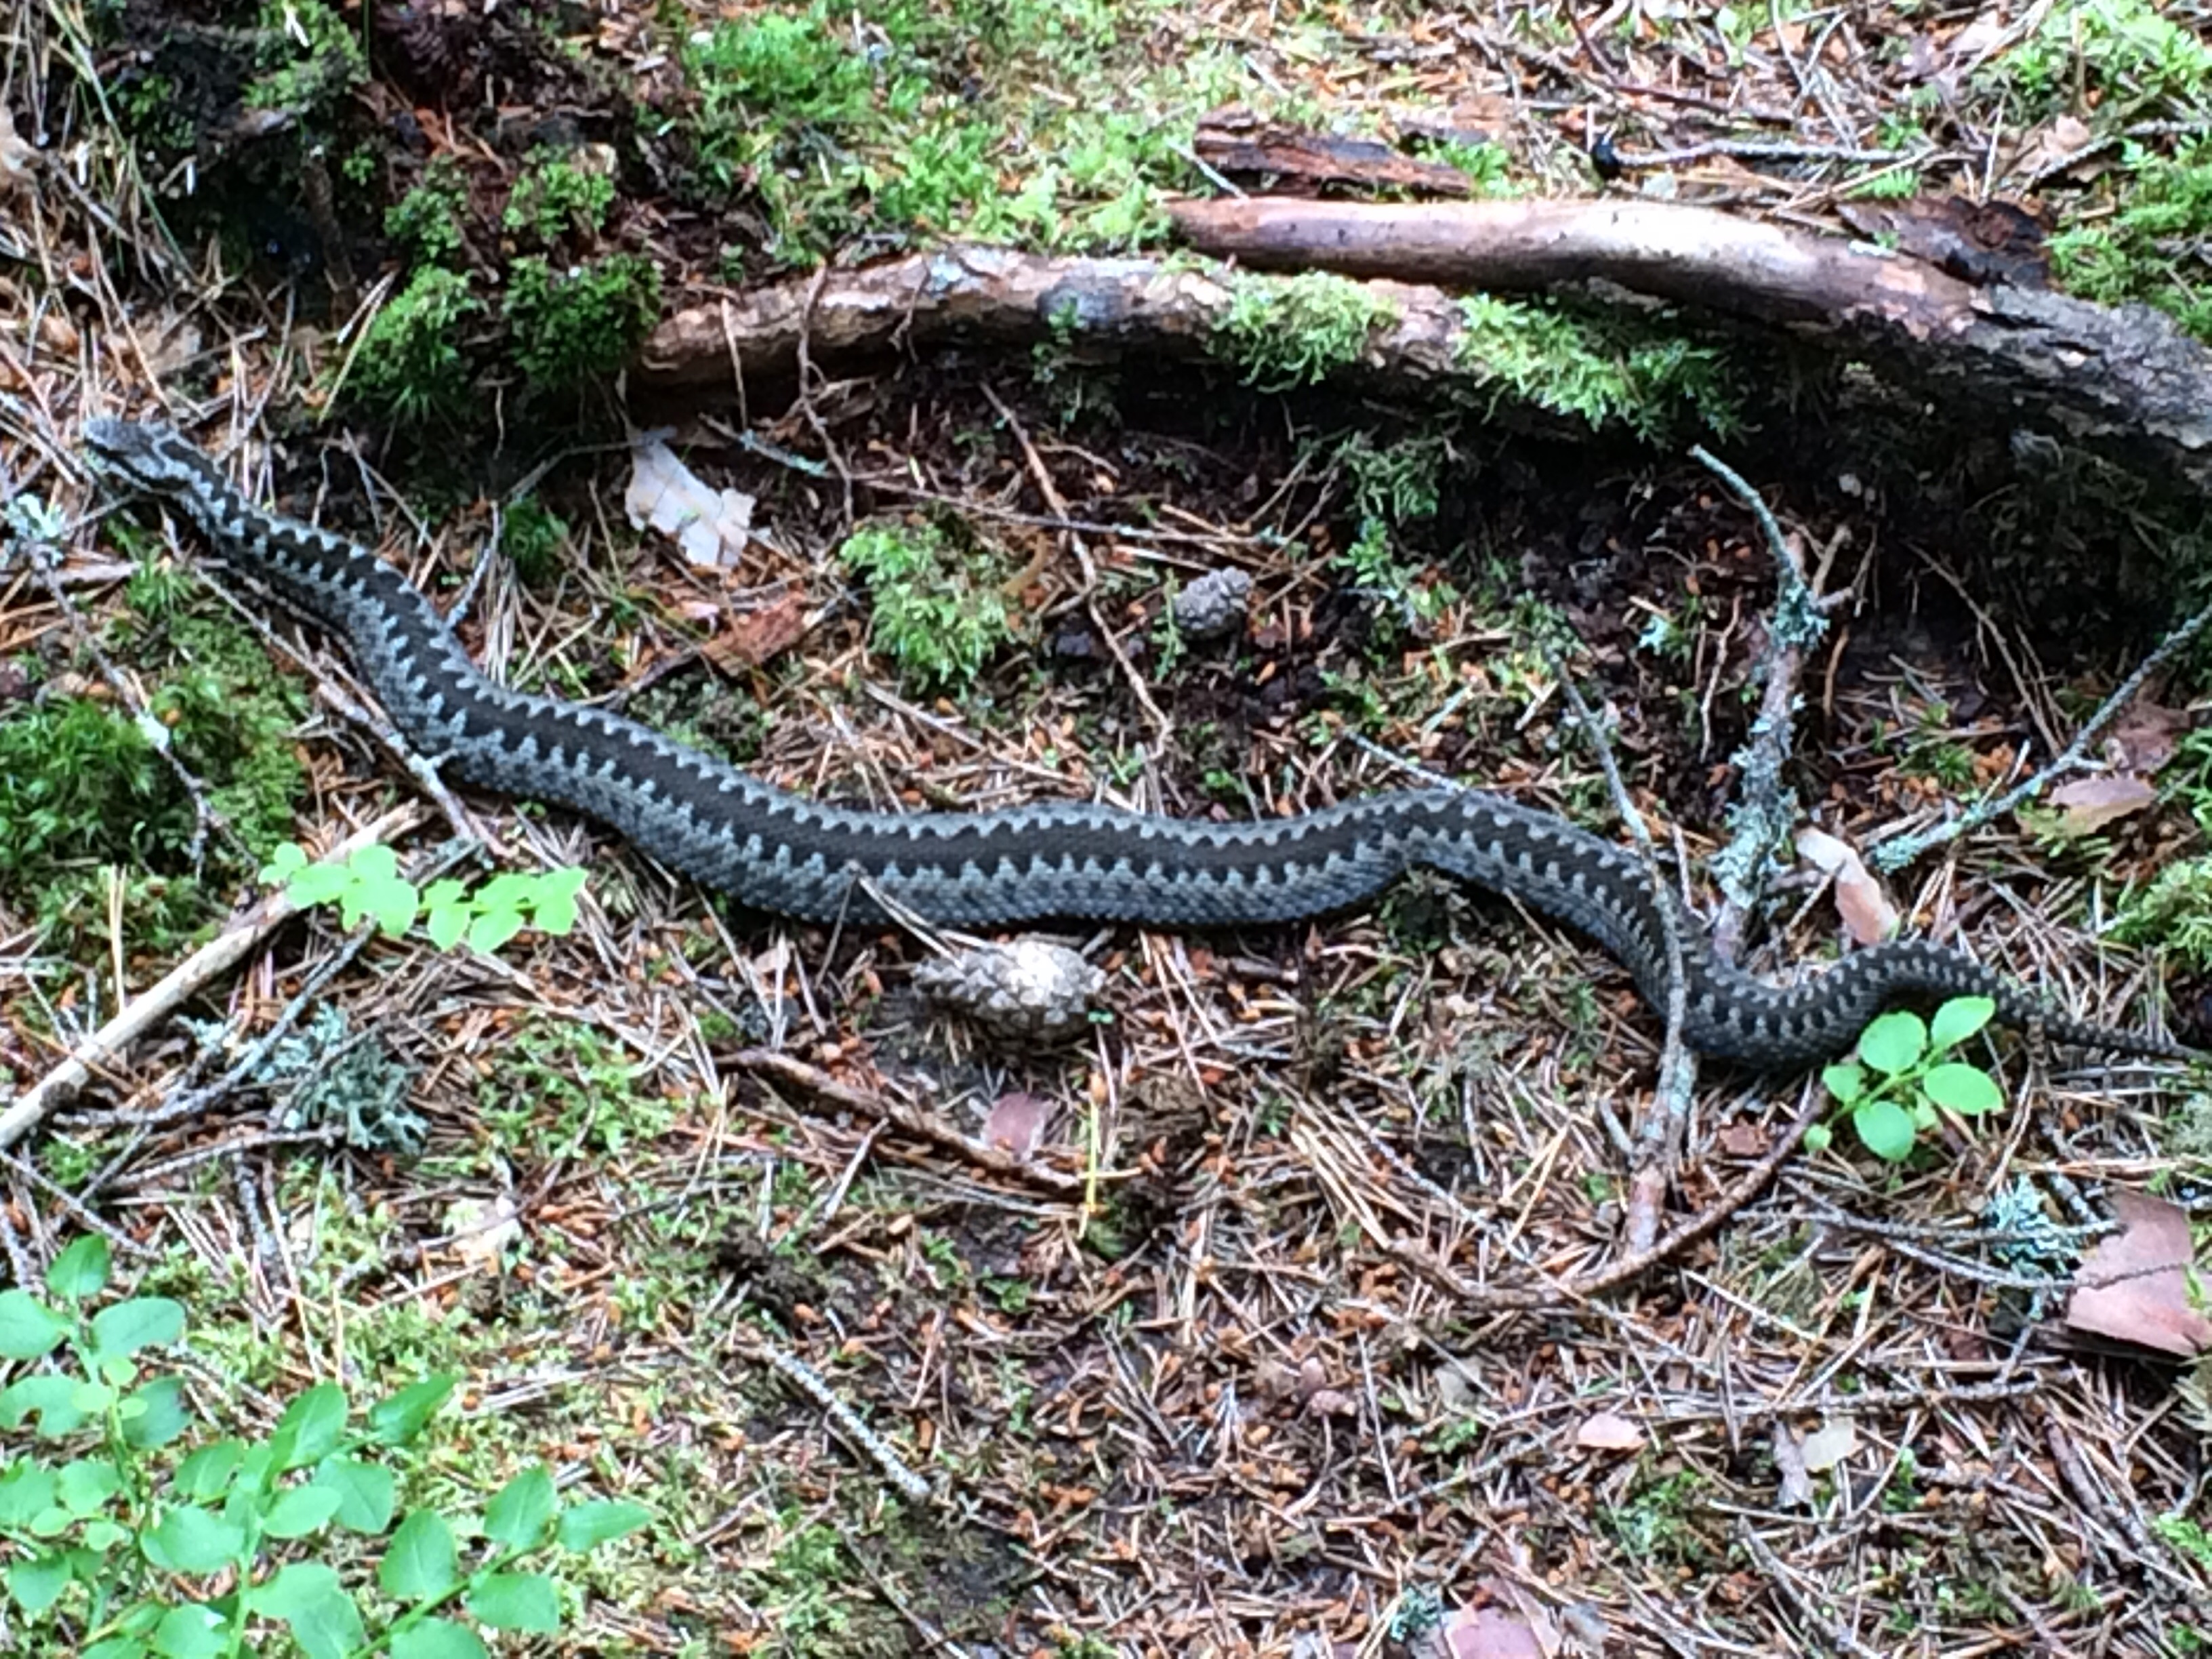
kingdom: Animalia
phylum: Chordata
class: Squamata
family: Viperidae
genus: Vipera
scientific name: Vipera berus
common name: Adder
